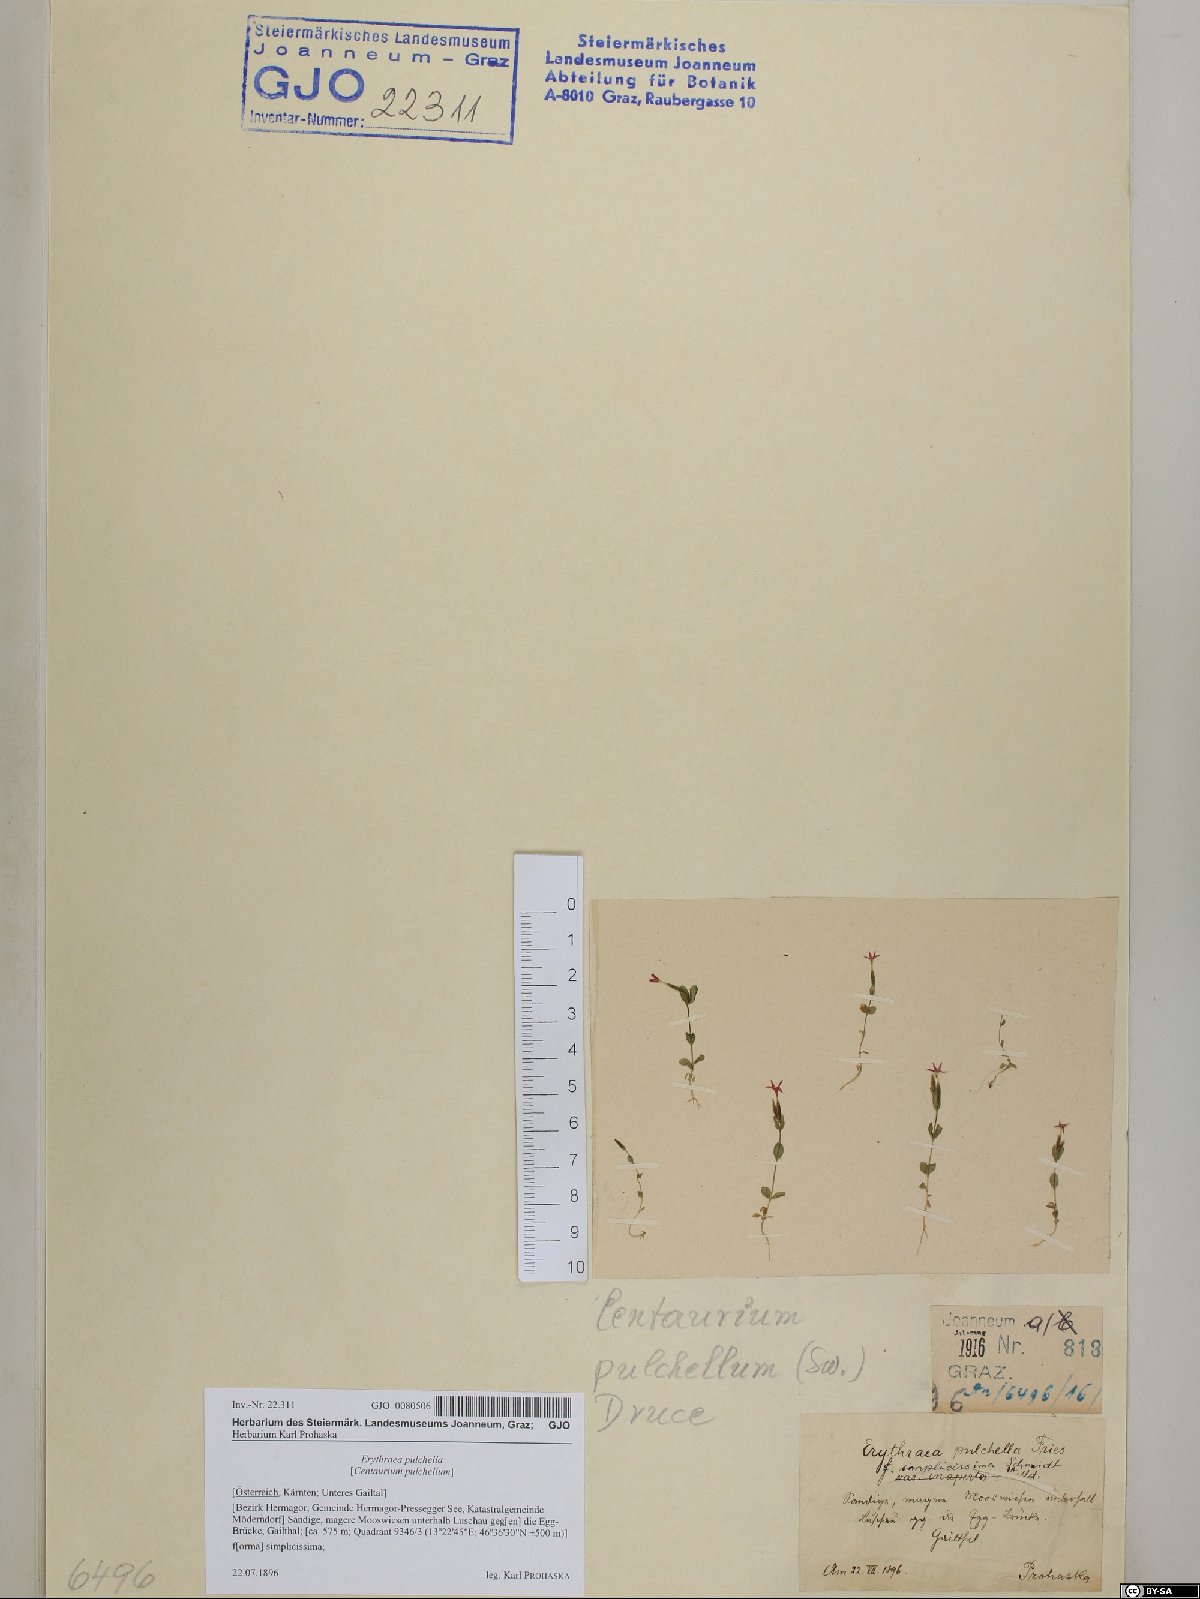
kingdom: Plantae
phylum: Tracheophyta
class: Magnoliopsida
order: Gentianales
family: Gentianaceae
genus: Centaurium
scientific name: Centaurium pulchellum
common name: Lesser centaury
